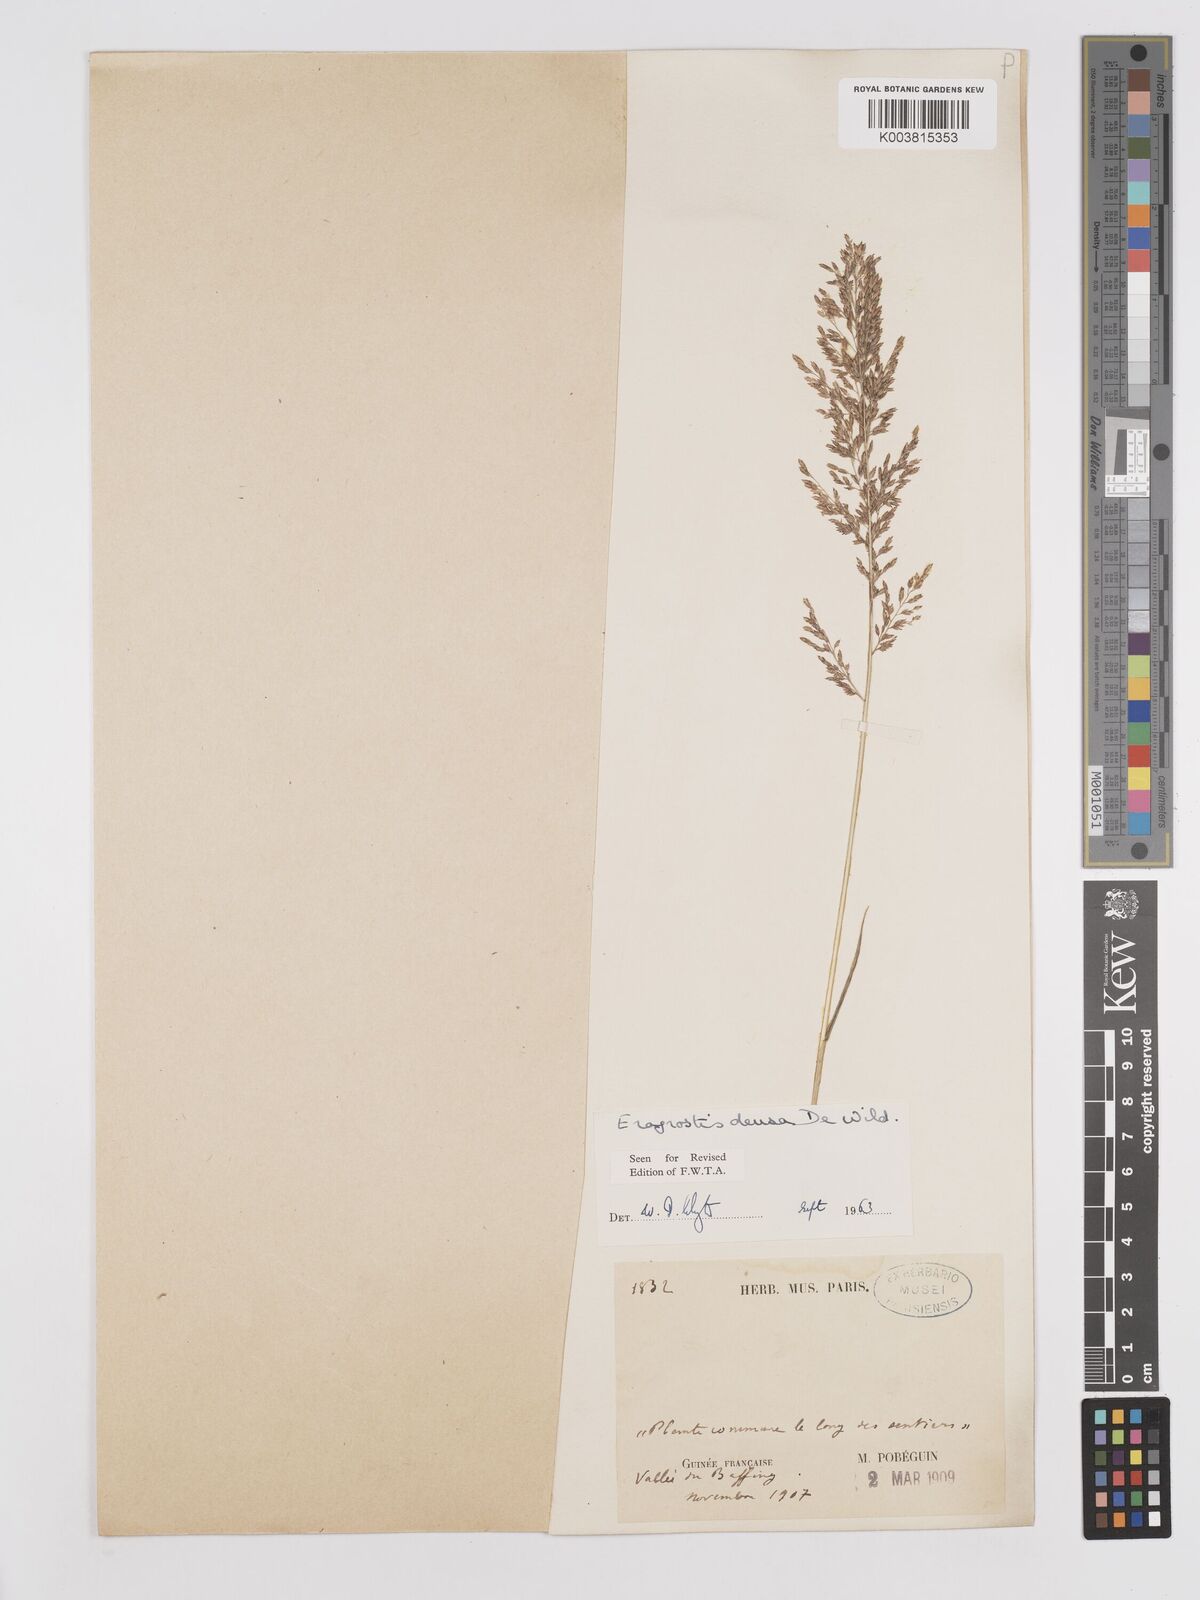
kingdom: Plantae
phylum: Tracheophyta
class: Liliopsida
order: Poales
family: Poaceae
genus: Eragrostis
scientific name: Eragrostis welwitschii
